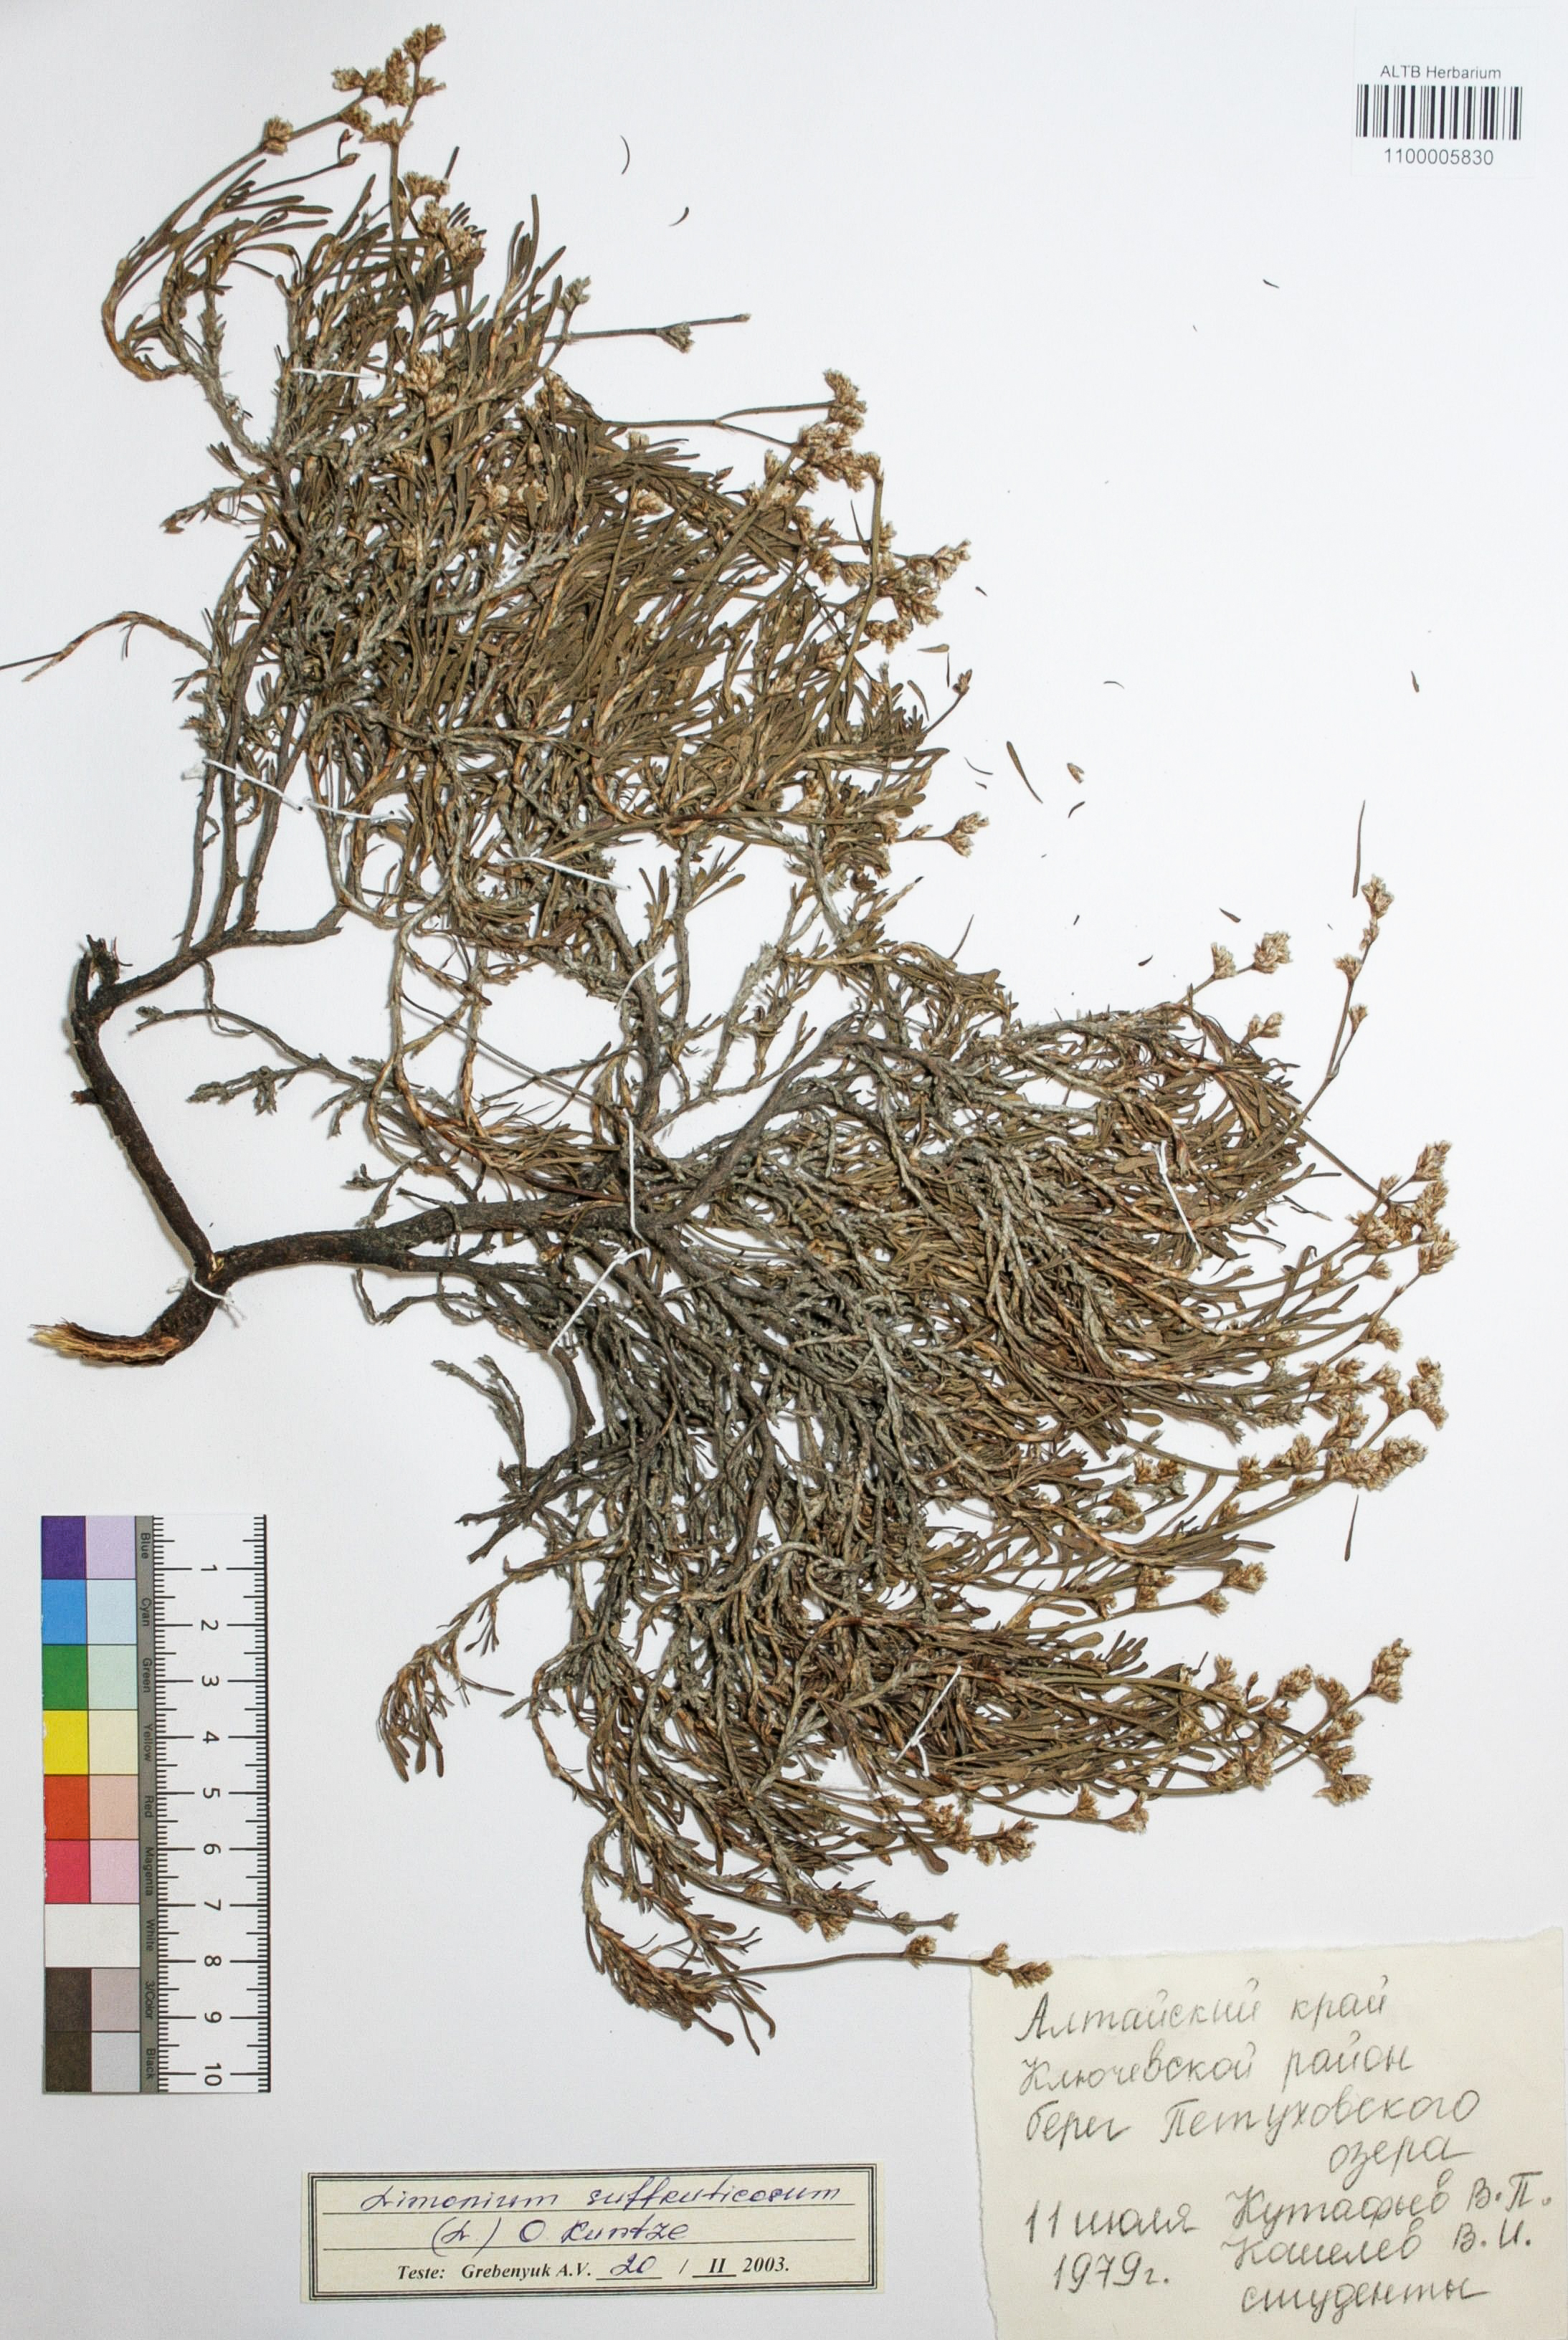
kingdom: Plantae
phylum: Tracheophyta
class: Magnoliopsida
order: Caryophyllales
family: Plumbaginaceae
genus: Limonium
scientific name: Limonium suffruticosum
